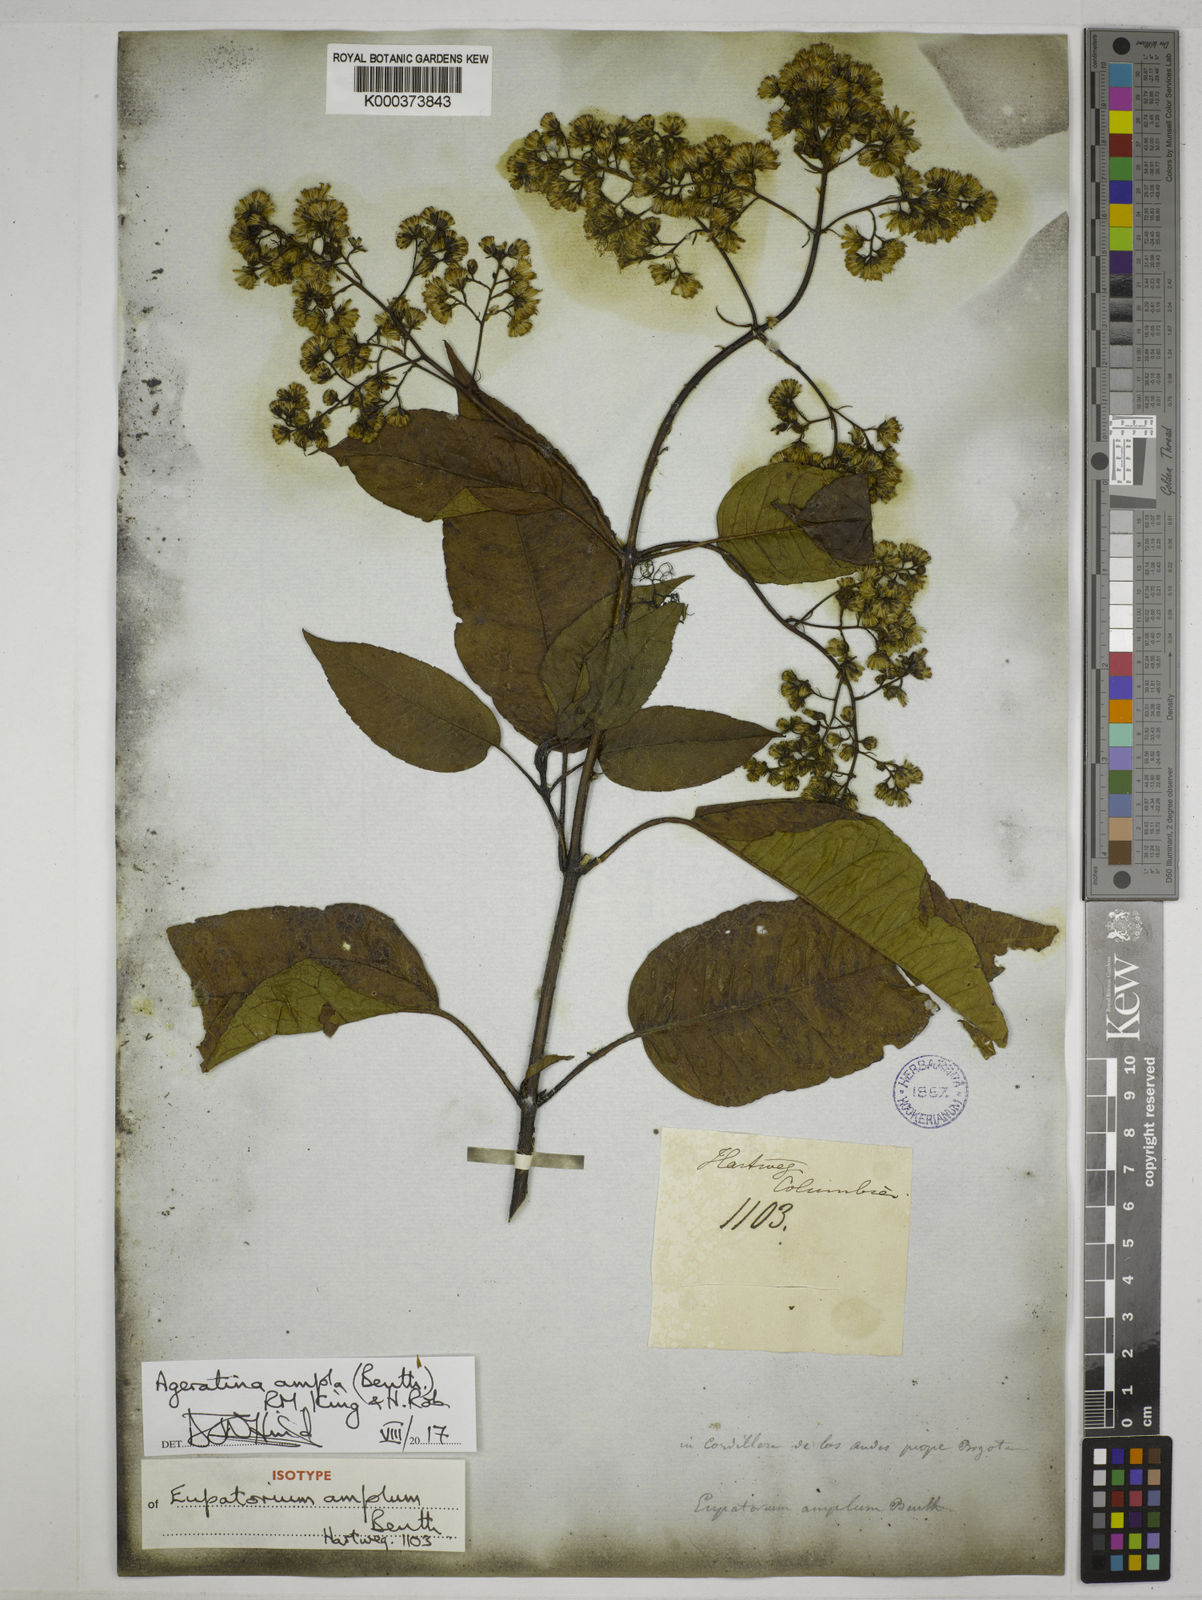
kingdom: Plantae
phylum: Tracheophyta
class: Magnoliopsida
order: Asterales
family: Asteraceae
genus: Ageratina
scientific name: Ageratina ampla
